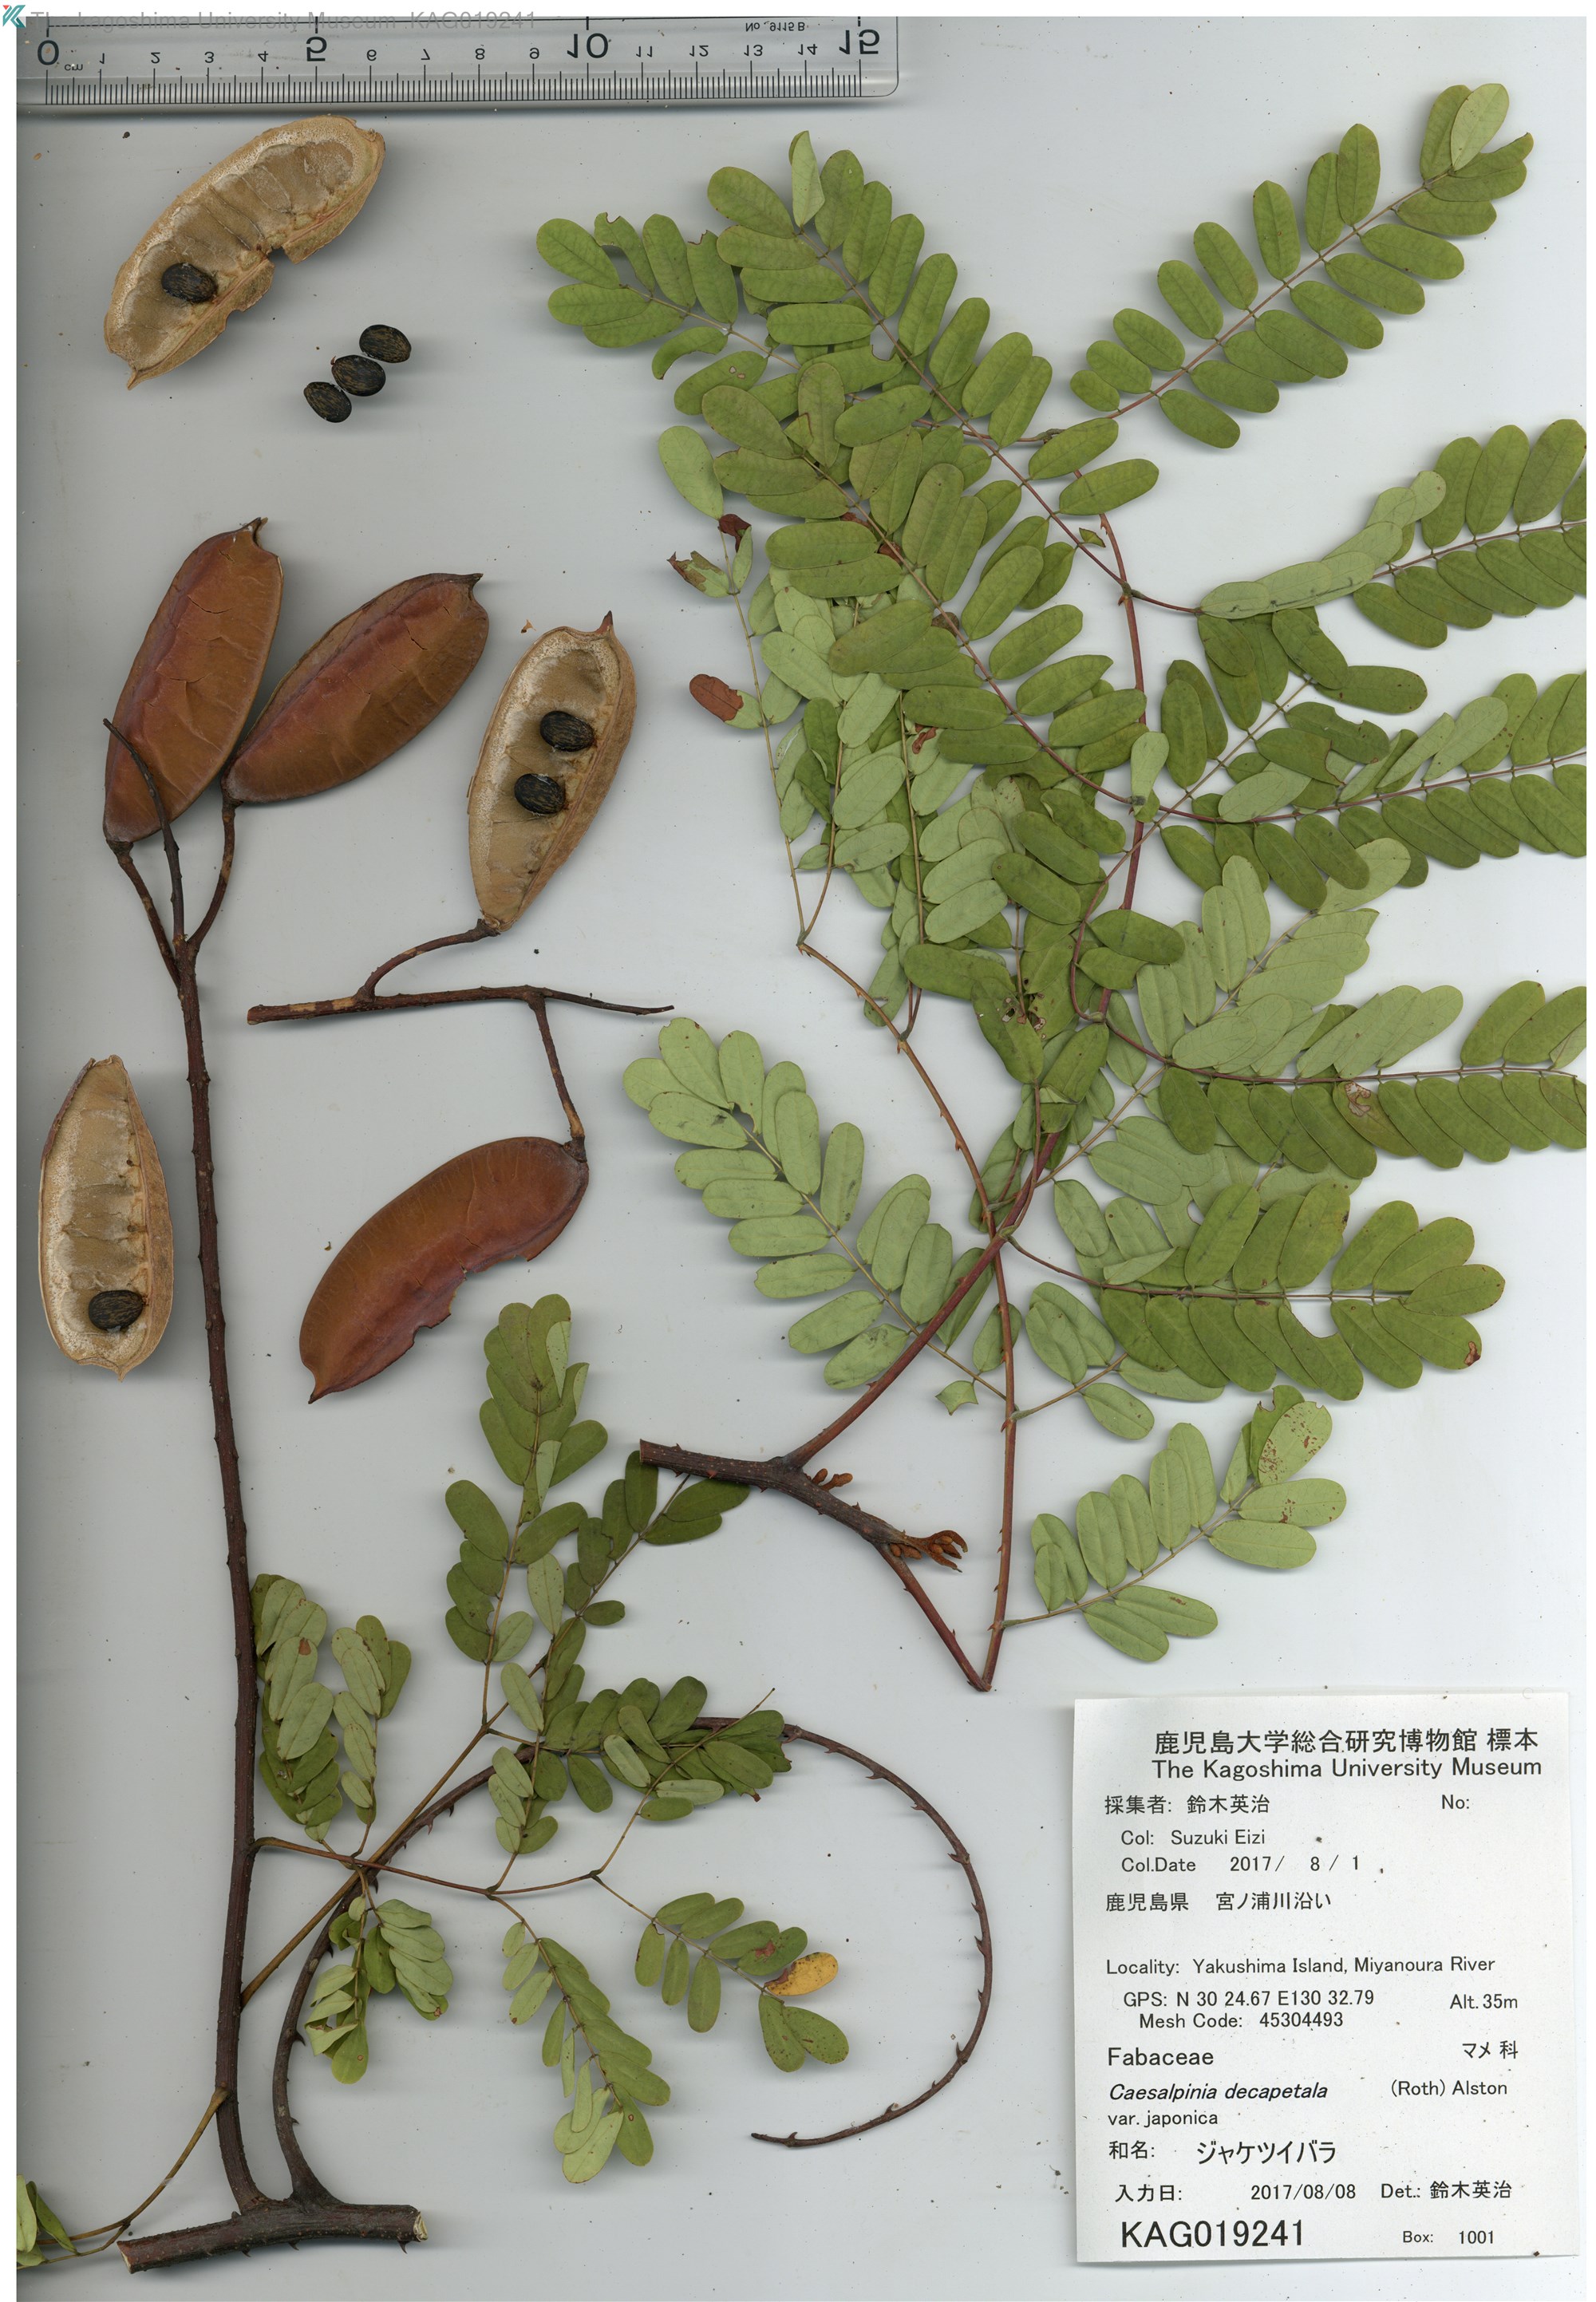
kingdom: Plantae
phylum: Tracheophyta
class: Magnoliopsida
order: Fabales
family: Fabaceae
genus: Biancaea
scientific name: Biancaea decapetala
